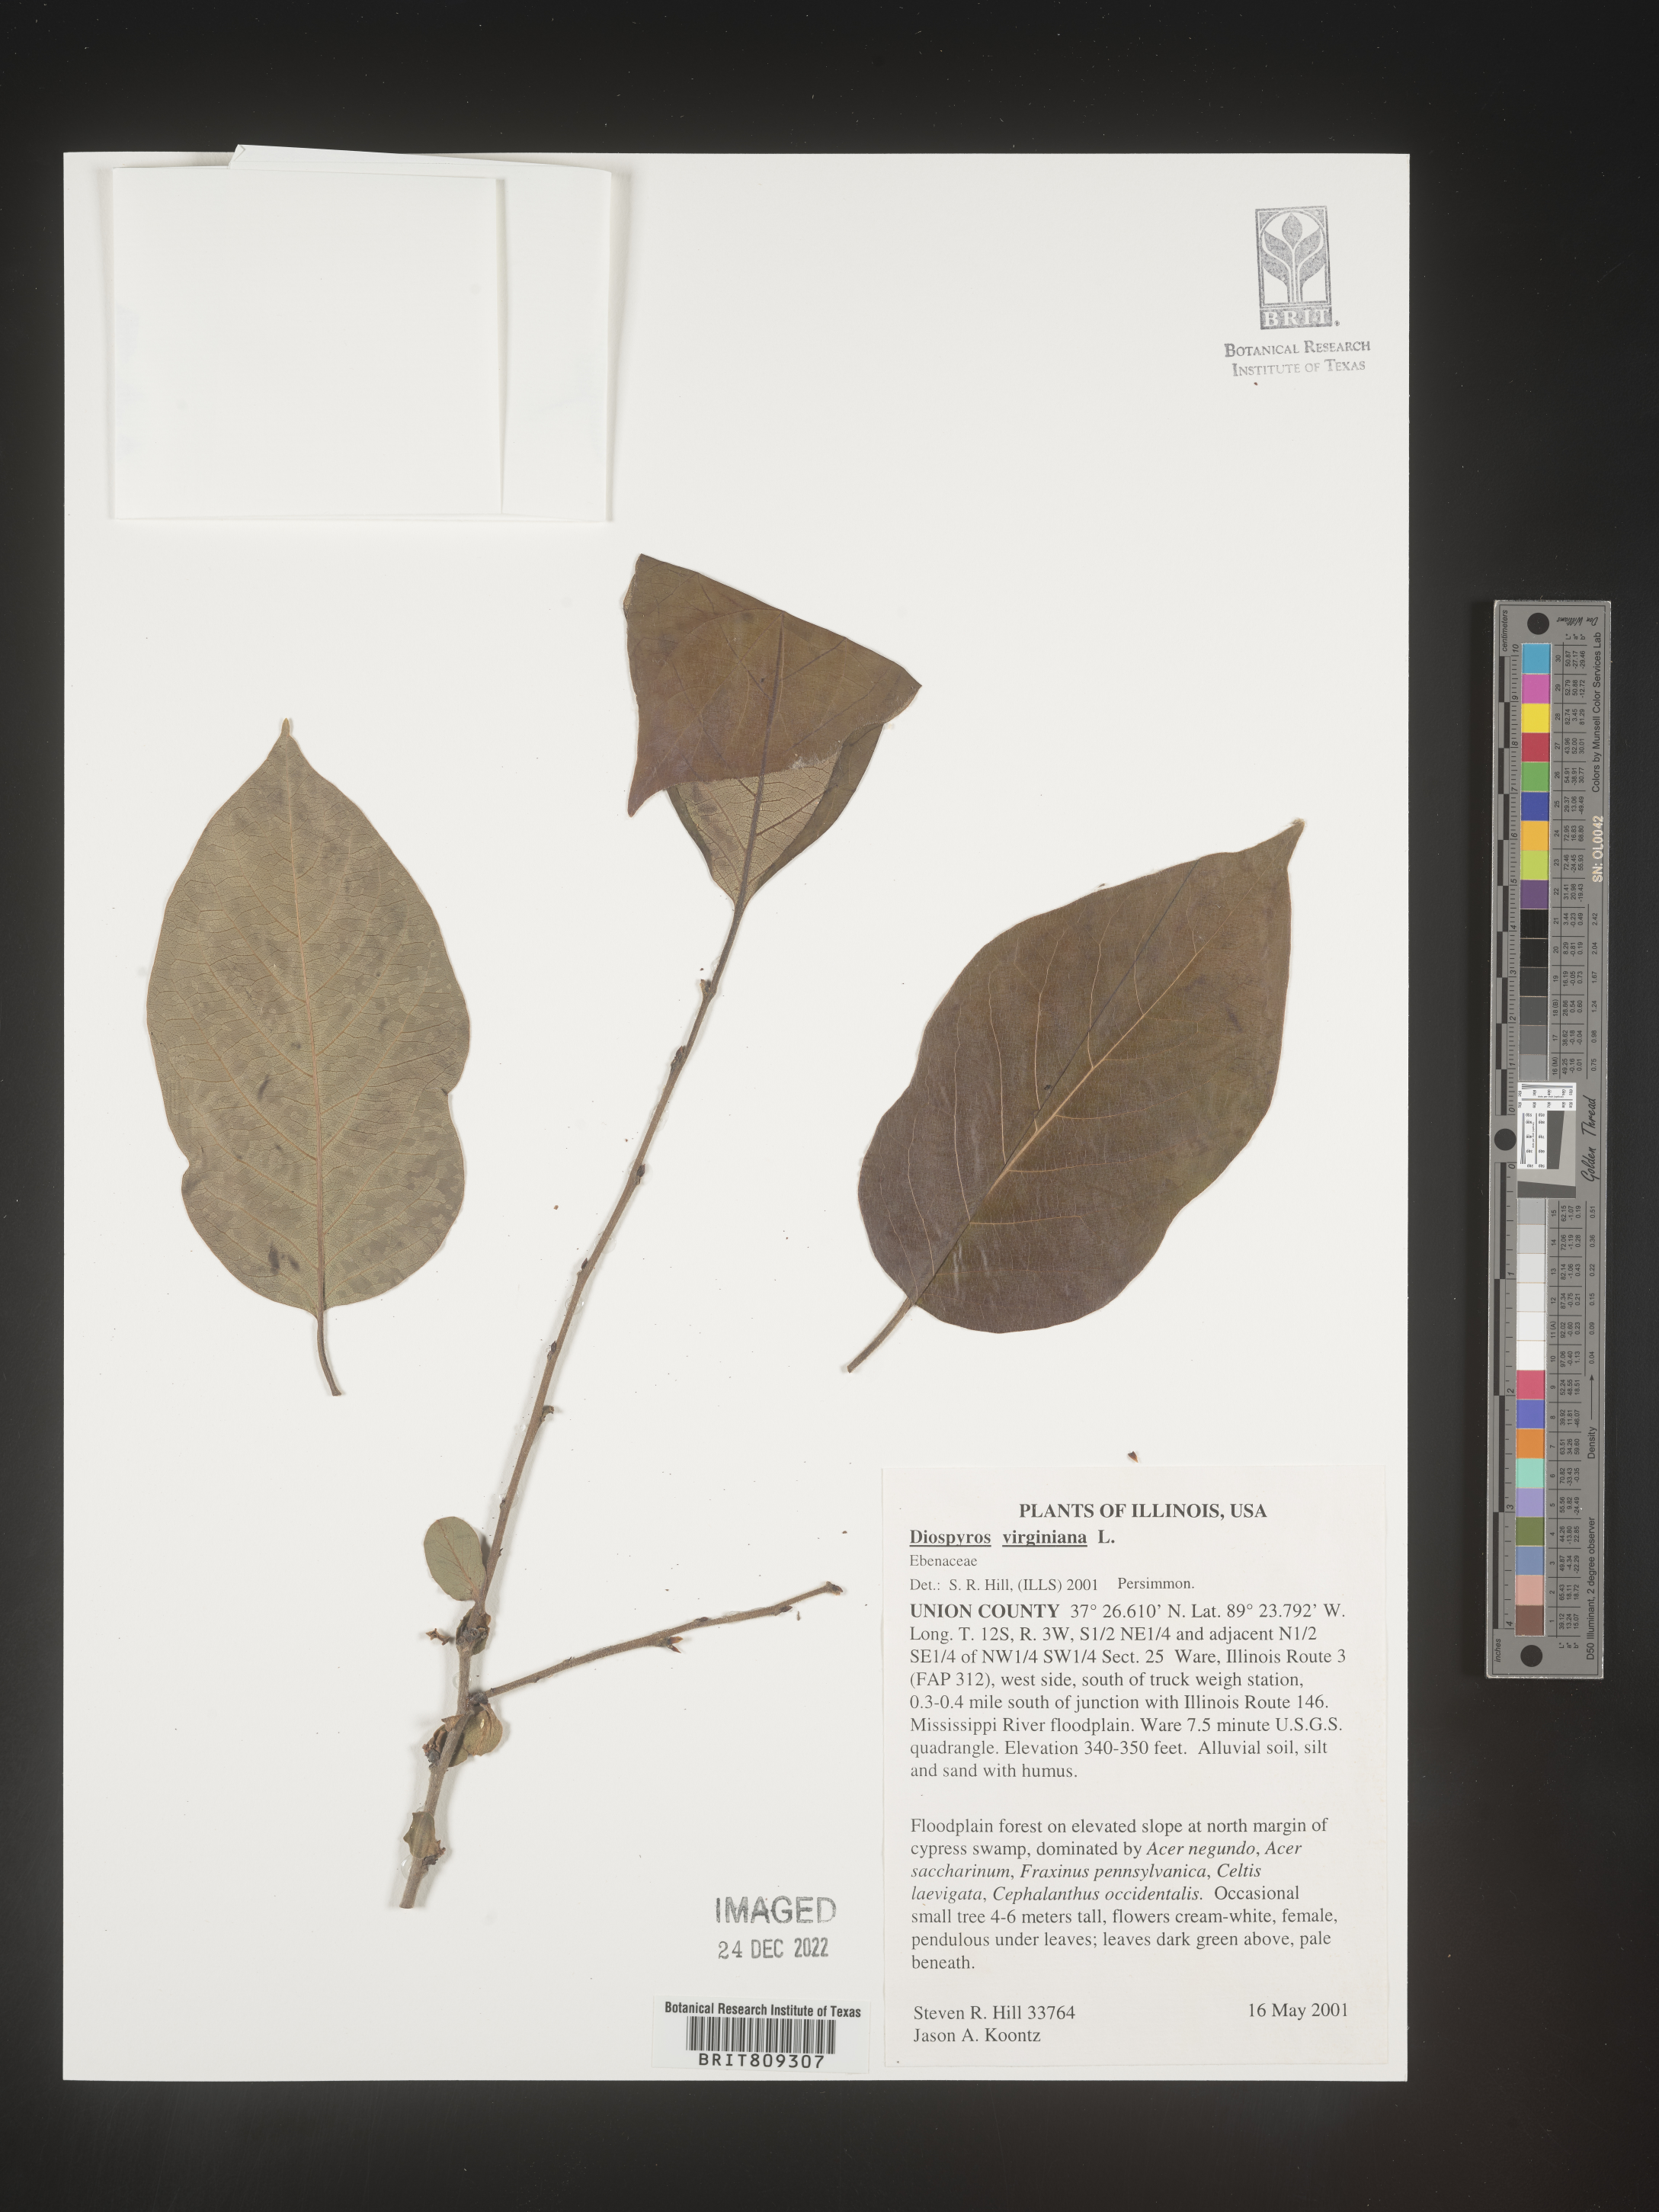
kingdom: Plantae
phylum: Tracheophyta
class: Magnoliopsida
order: Ericales
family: Ebenaceae
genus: Diospyros
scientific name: Diospyros virginiana
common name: Persimmon
